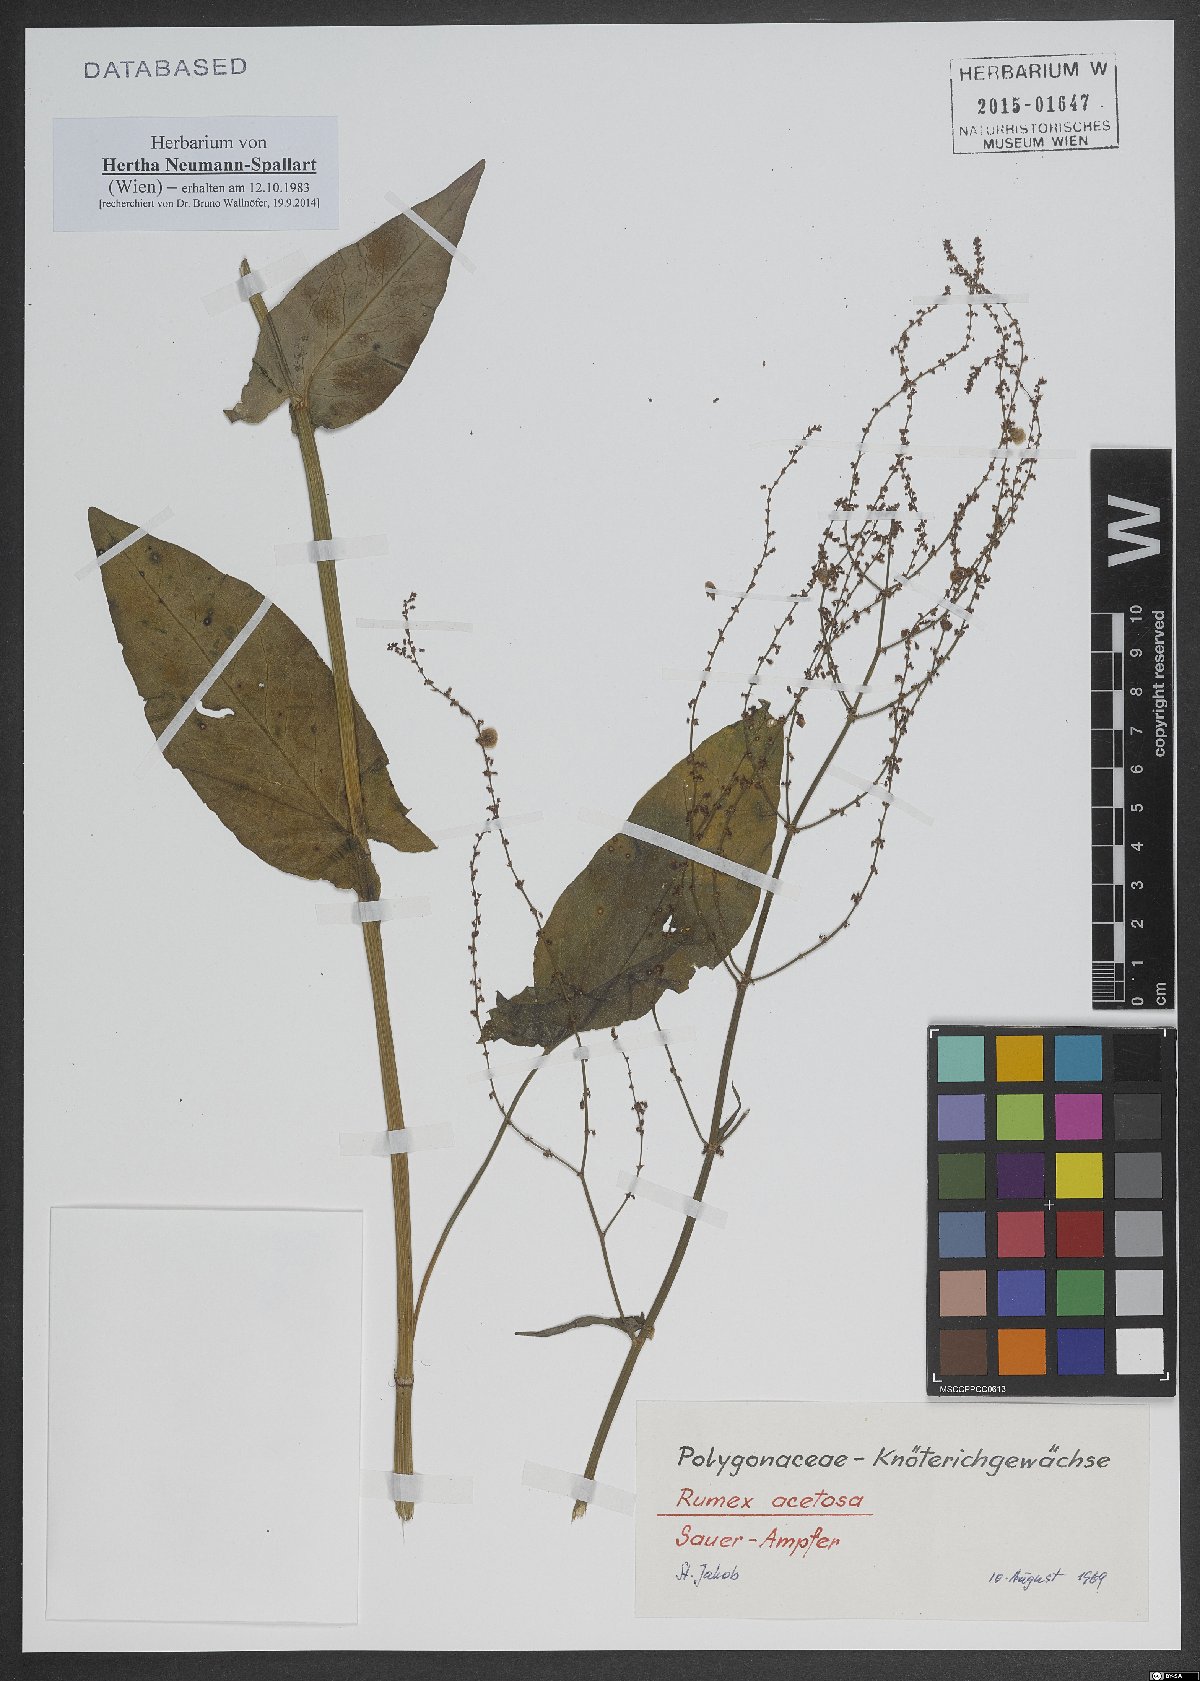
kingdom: Plantae
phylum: Tracheophyta
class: Magnoliopsida
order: Caryophyllales
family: Polygonaceae
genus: Rumex
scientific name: Rumex acetosa
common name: Garden sorrel
